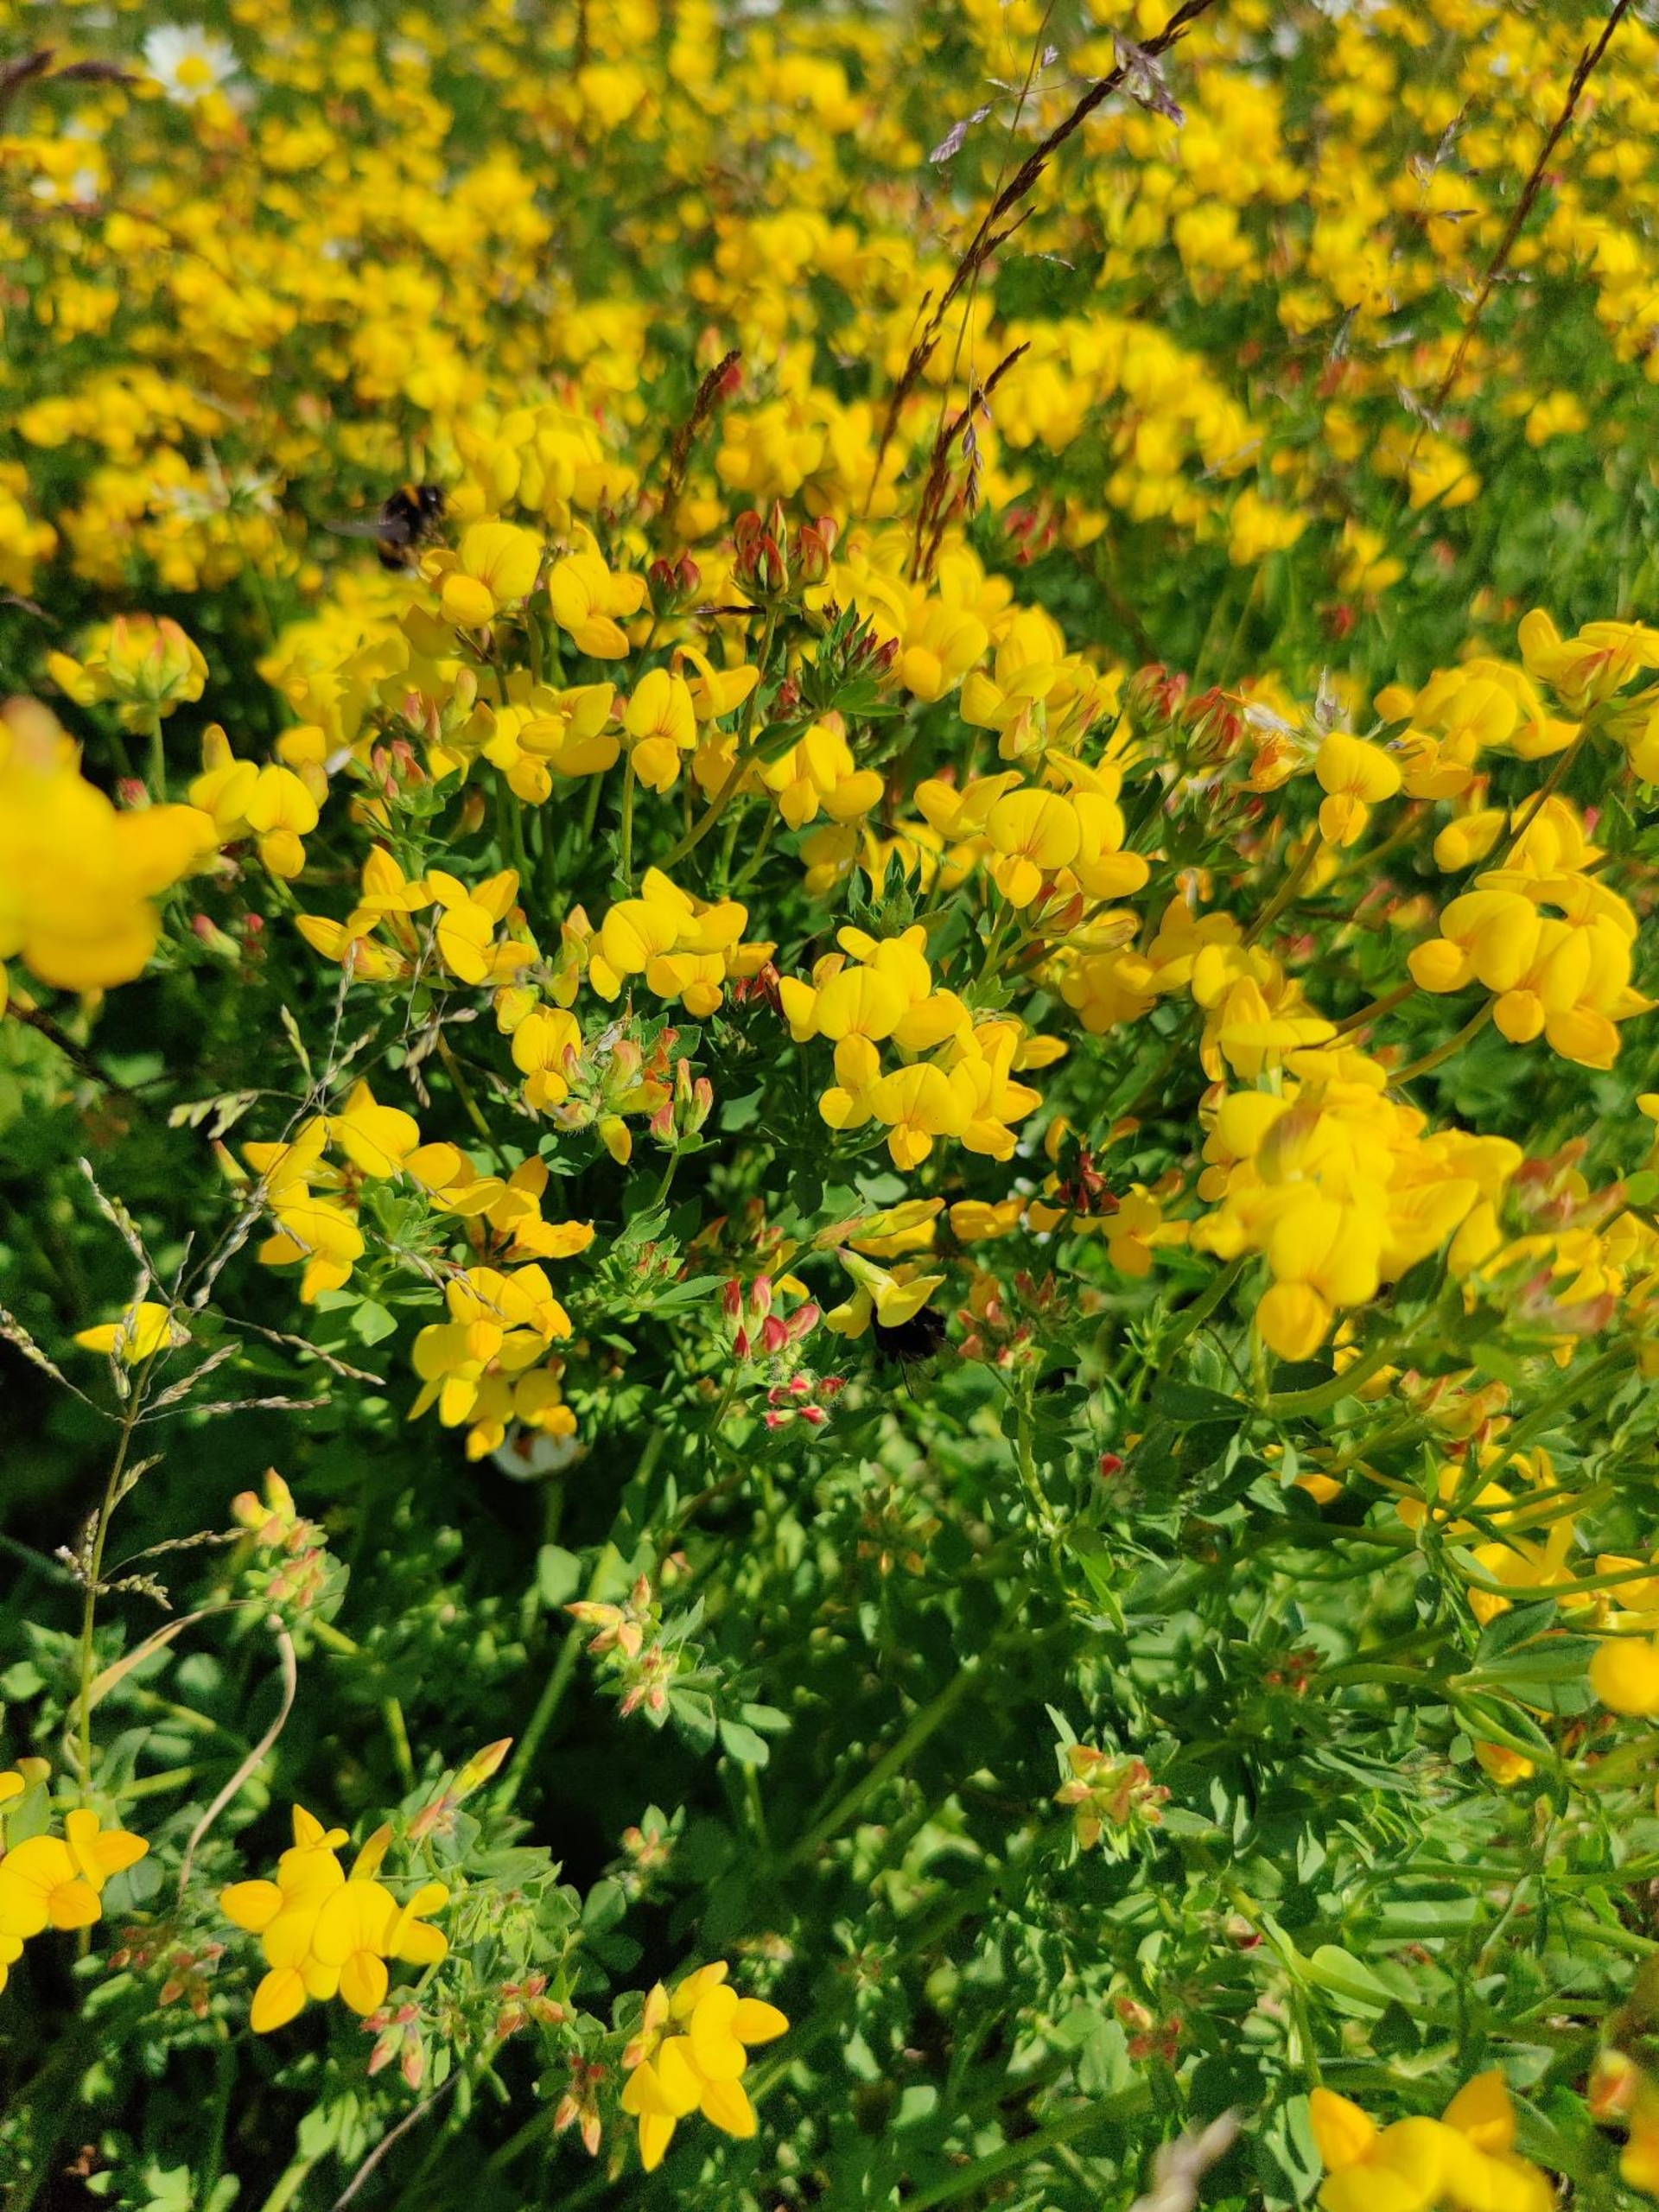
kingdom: Plantae
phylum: Tracheophyta
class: Magnoliopsida
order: Fabales
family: Fabaceae
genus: Lotus
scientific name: Lotus corniculatus
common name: Almindelig kællingetand
